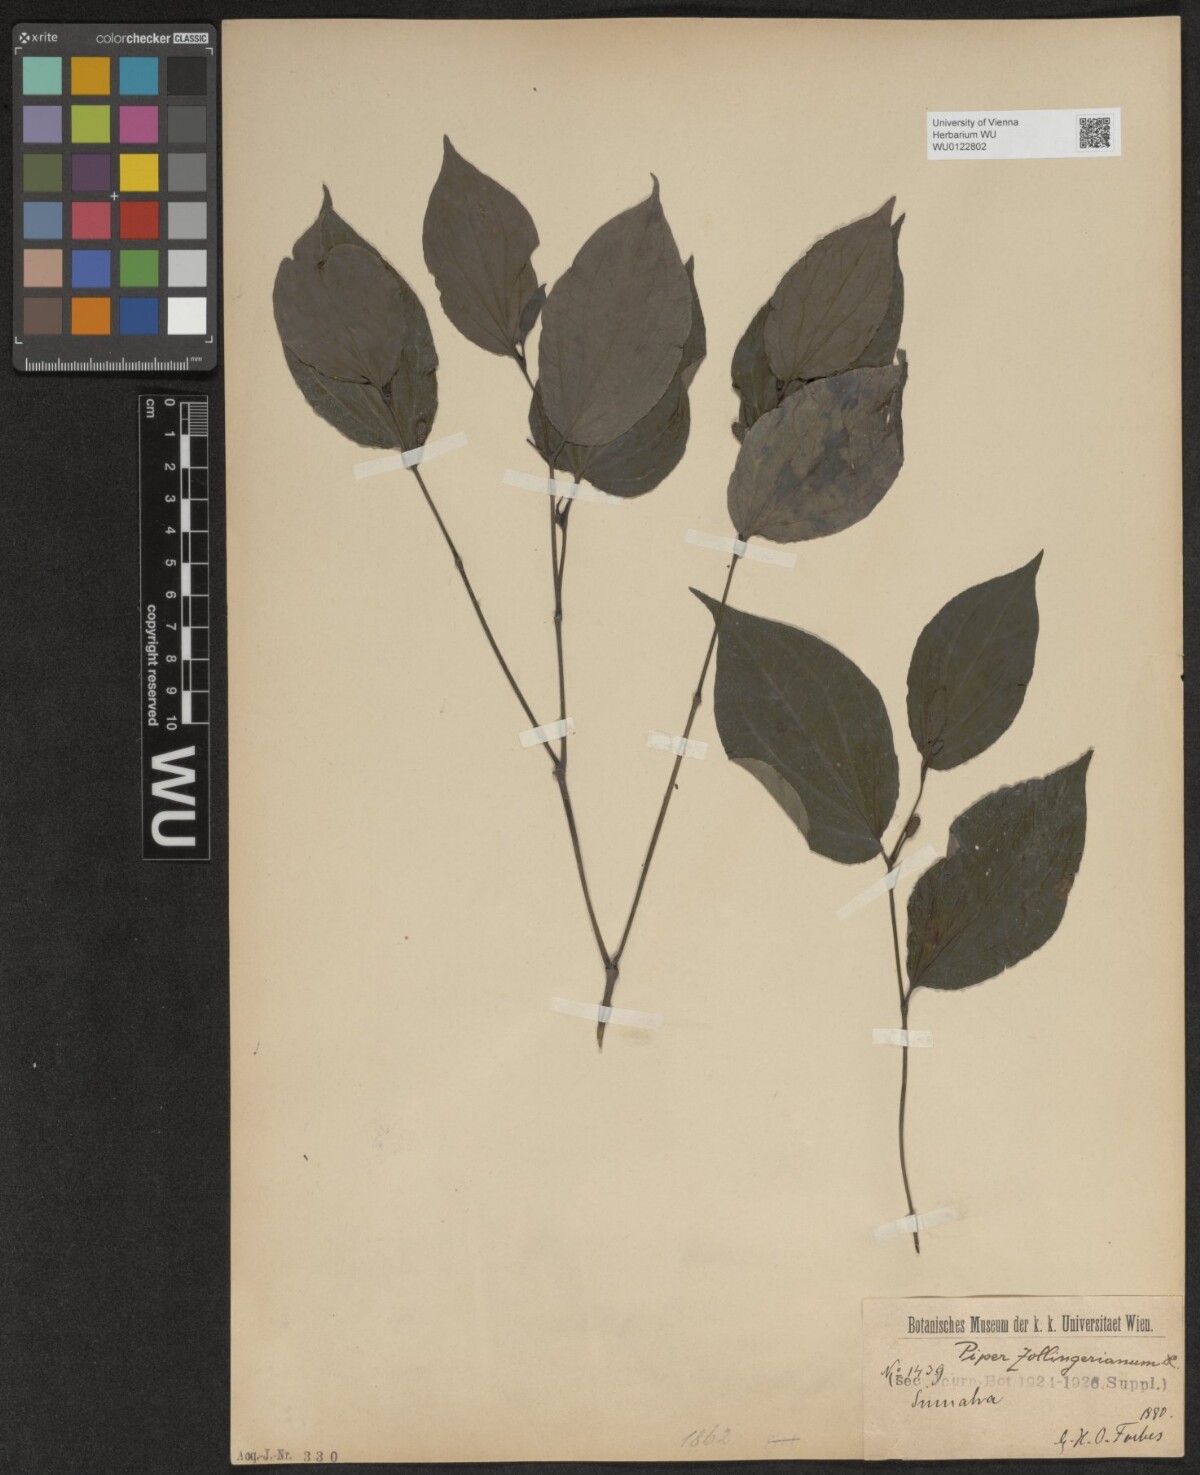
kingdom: Plantae
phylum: Tracheophyta
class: Magnoliopsida
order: Piperales
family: Piperaceae
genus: Piper
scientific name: Piper arcuatum
